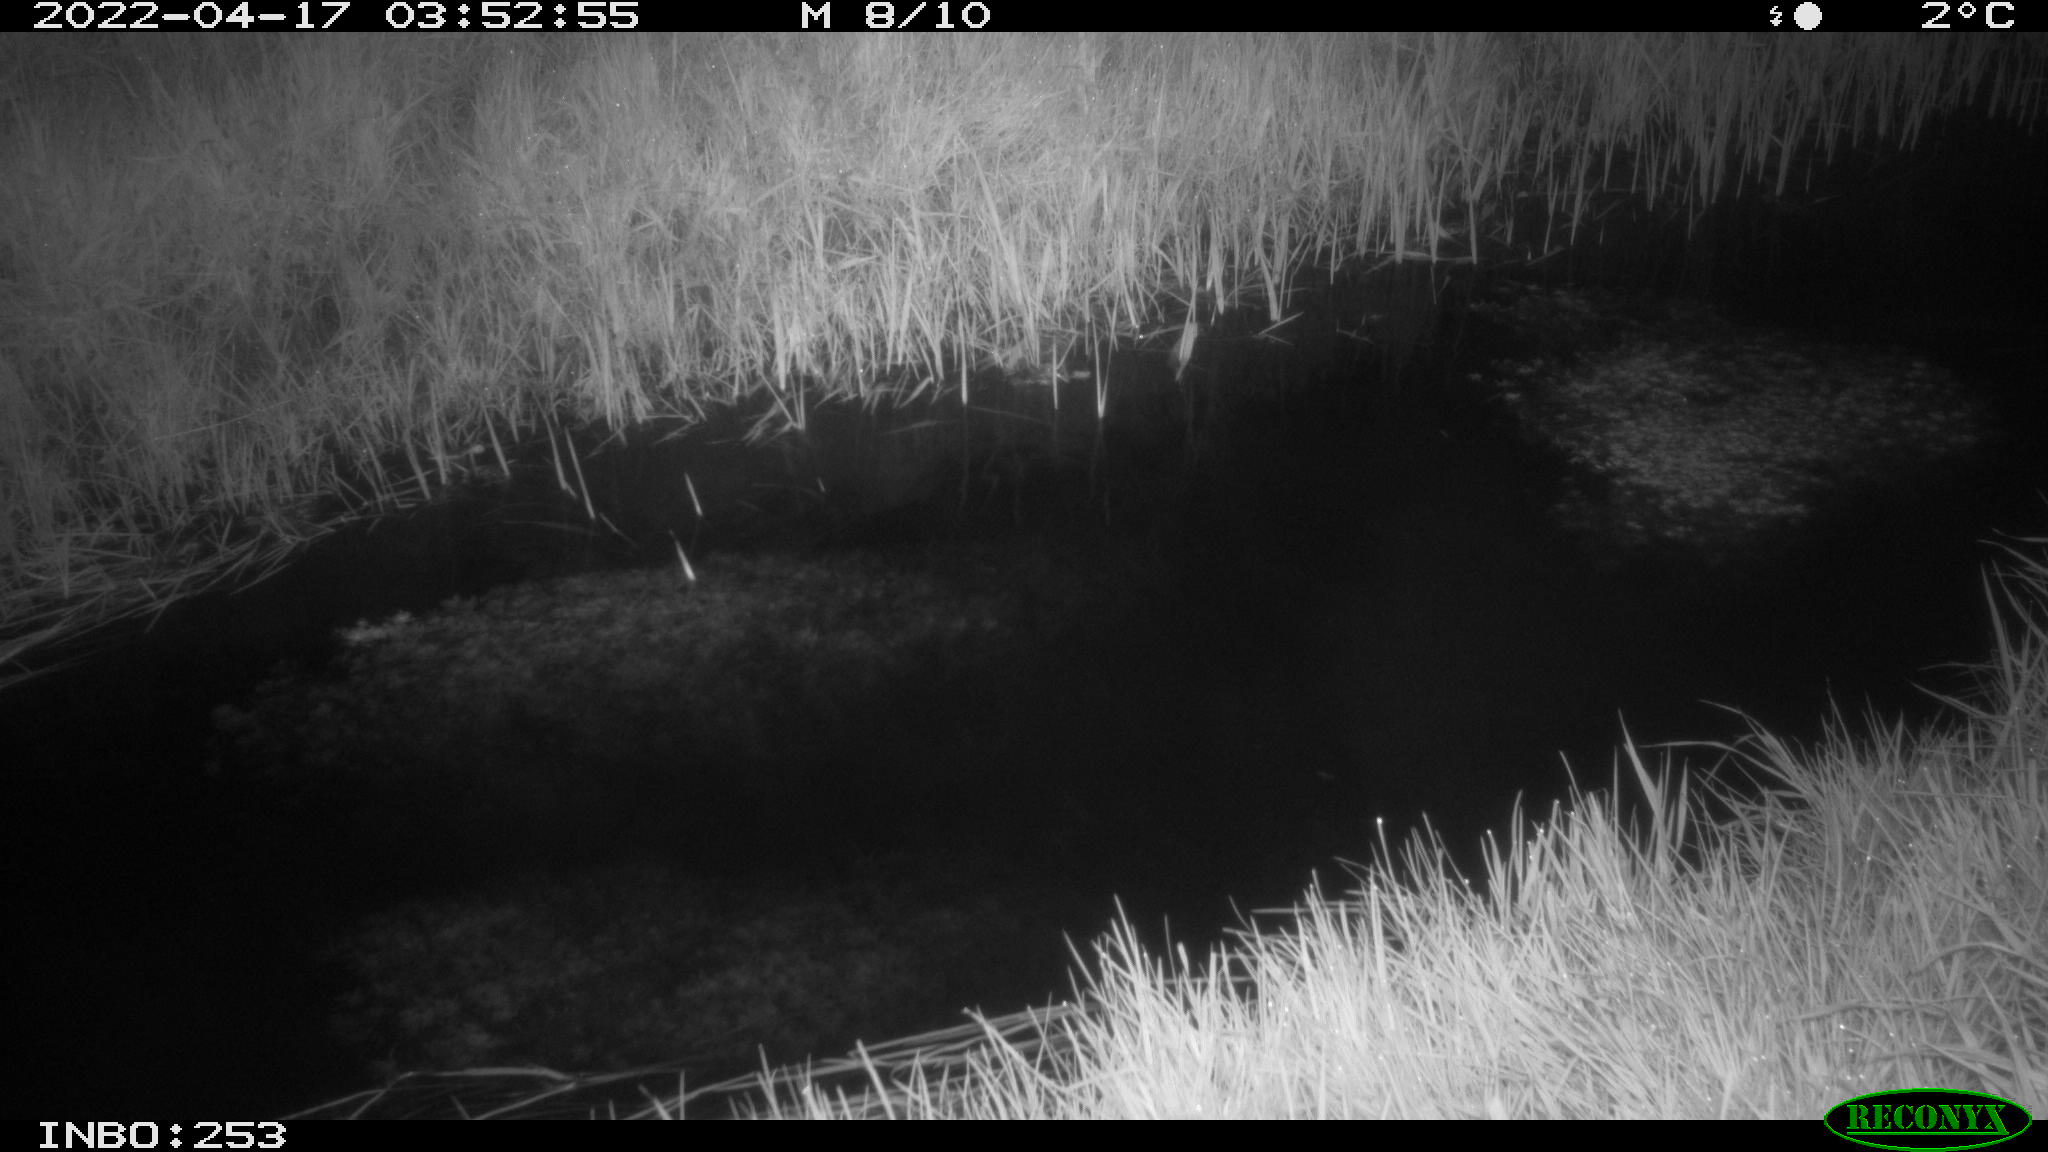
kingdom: Animalia
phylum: Chordata
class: Aves
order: Anseriformes
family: Anatidae
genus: Anas
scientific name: Anas platyrhynchos
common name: Mallard
